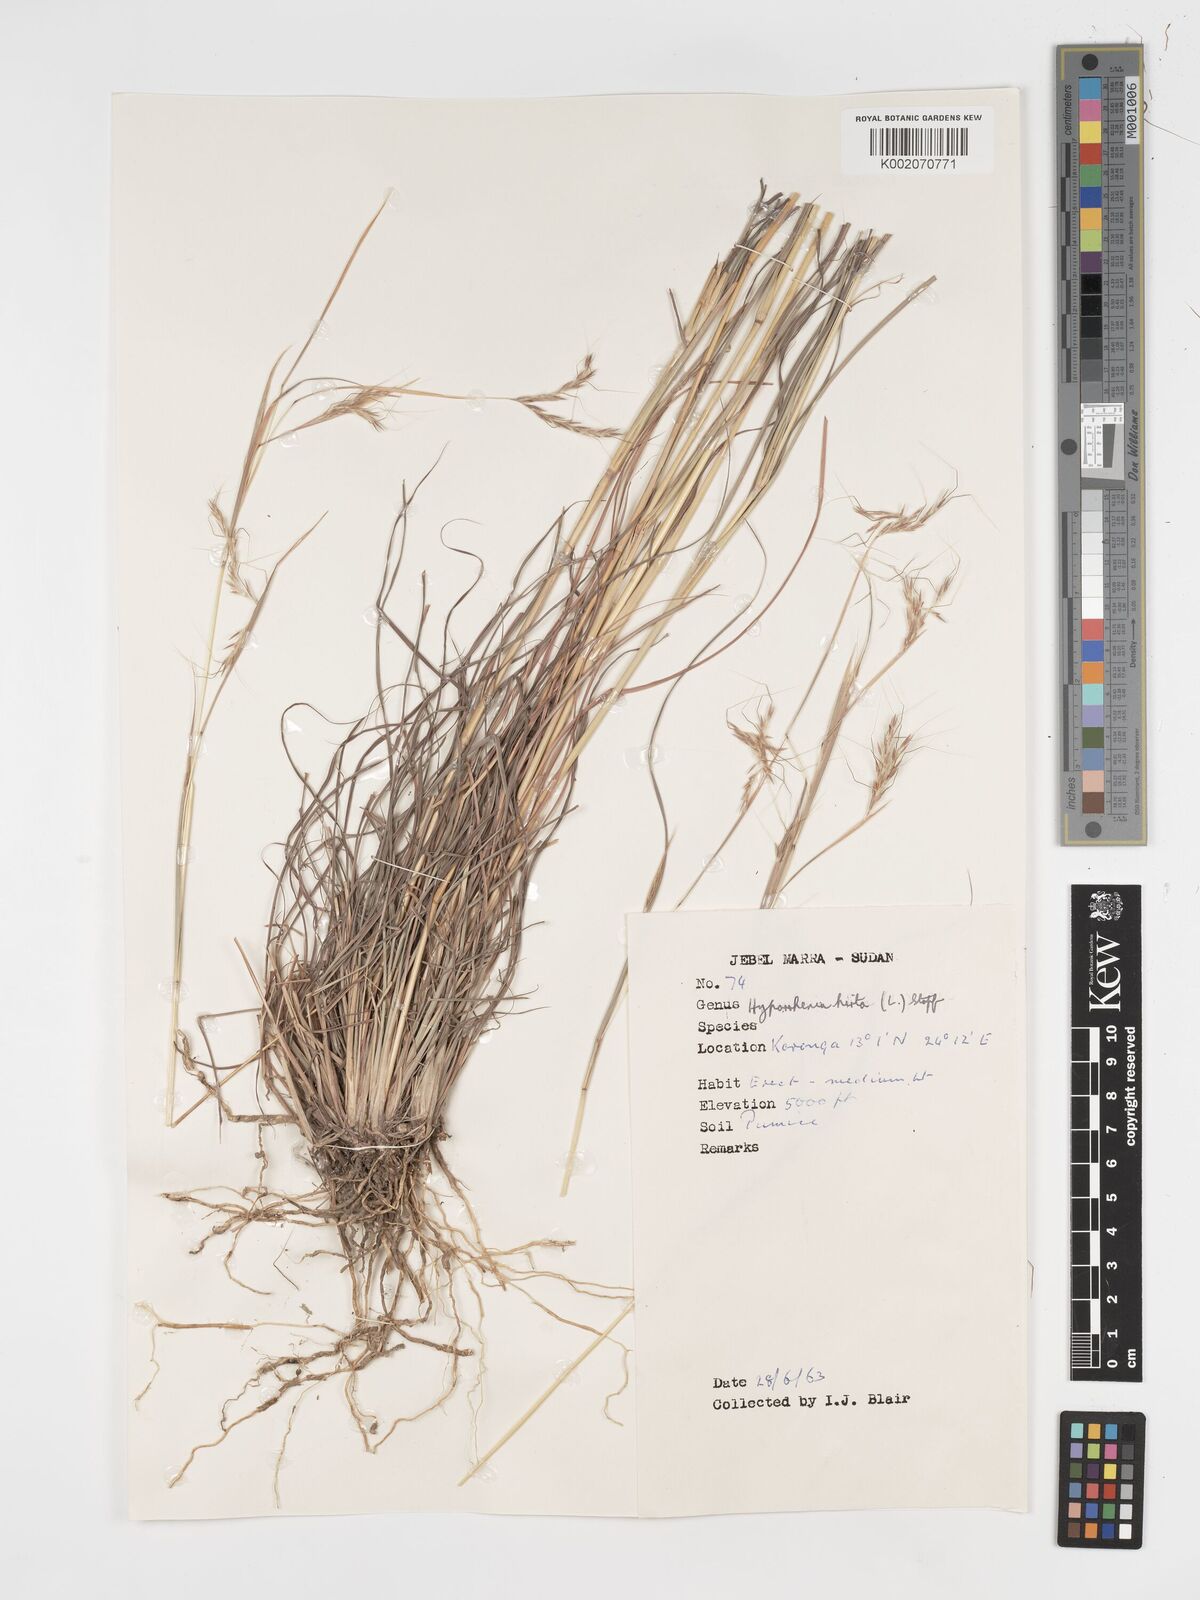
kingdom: Plantae
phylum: Tracheophyta
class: Liliopsida
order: Poales
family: Poaceae
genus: Hyparrhenia
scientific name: Hyparrhenia hirta
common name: Thatching grass
